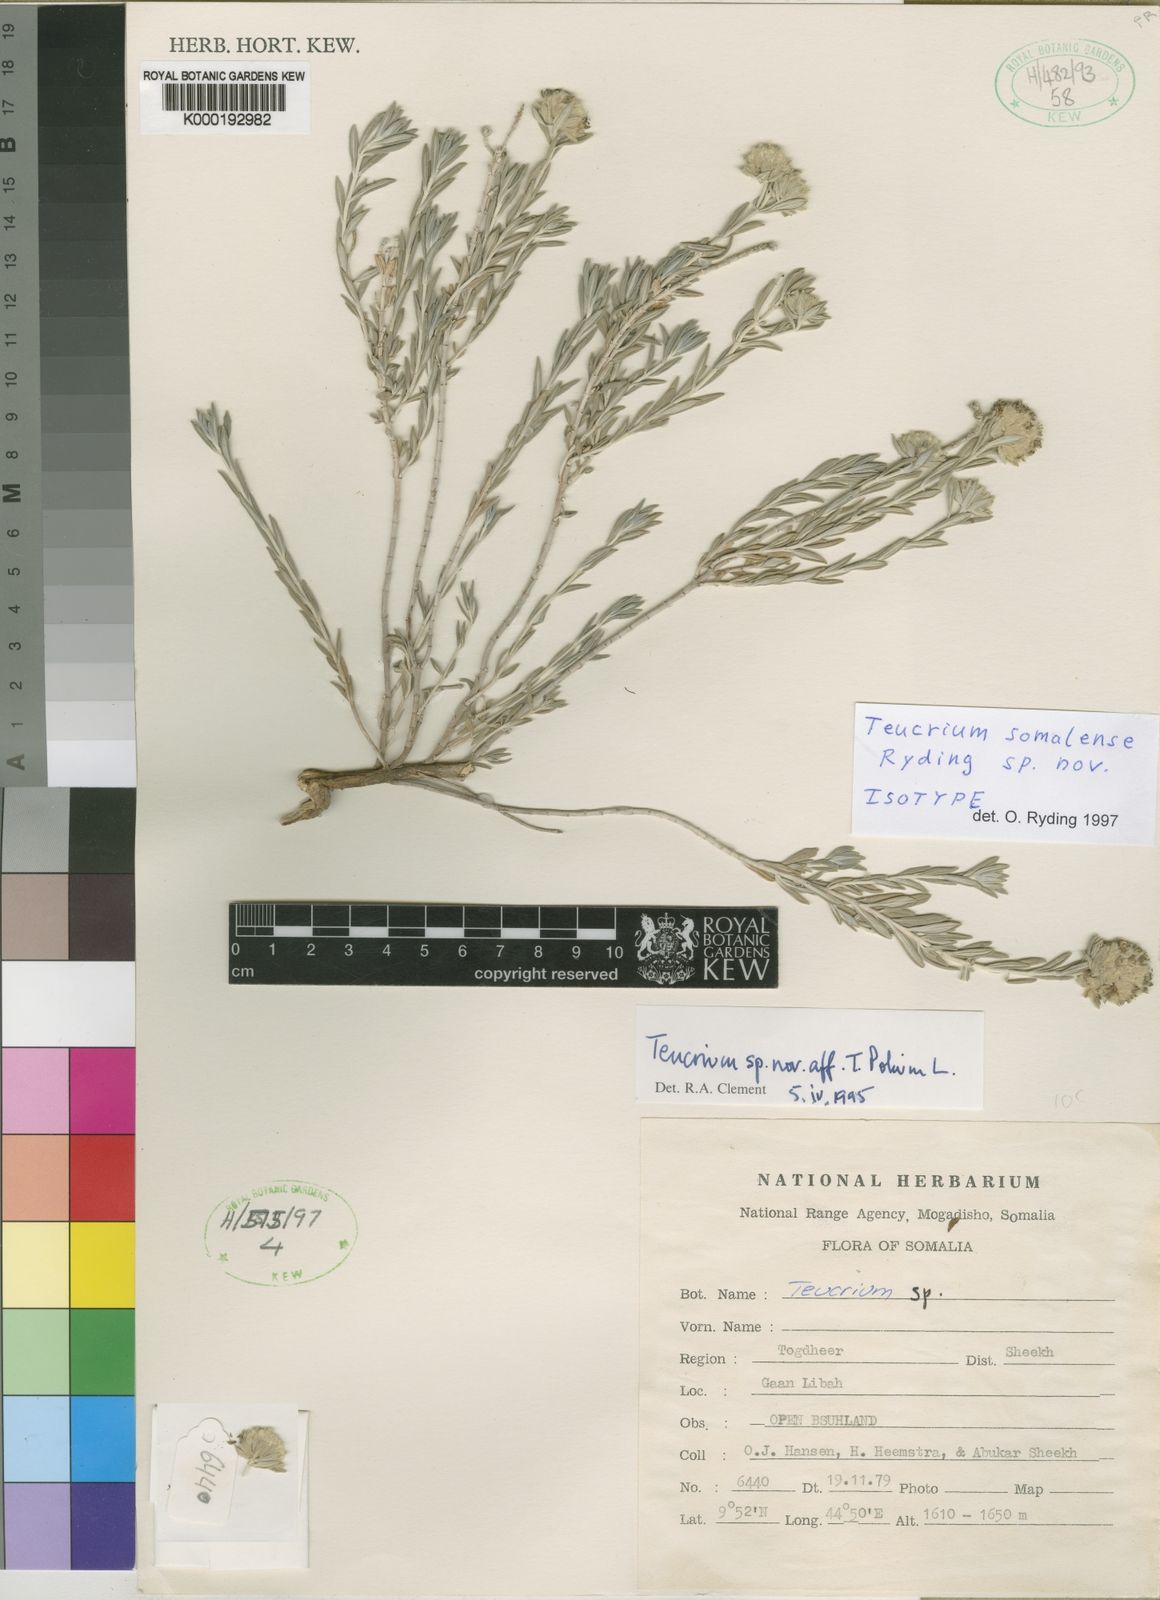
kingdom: Plantae
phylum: Tracheophyta
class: Magnoliopsida
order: Lamiales
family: Lamiaceae
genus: Teucrium
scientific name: Teucrium somalense
